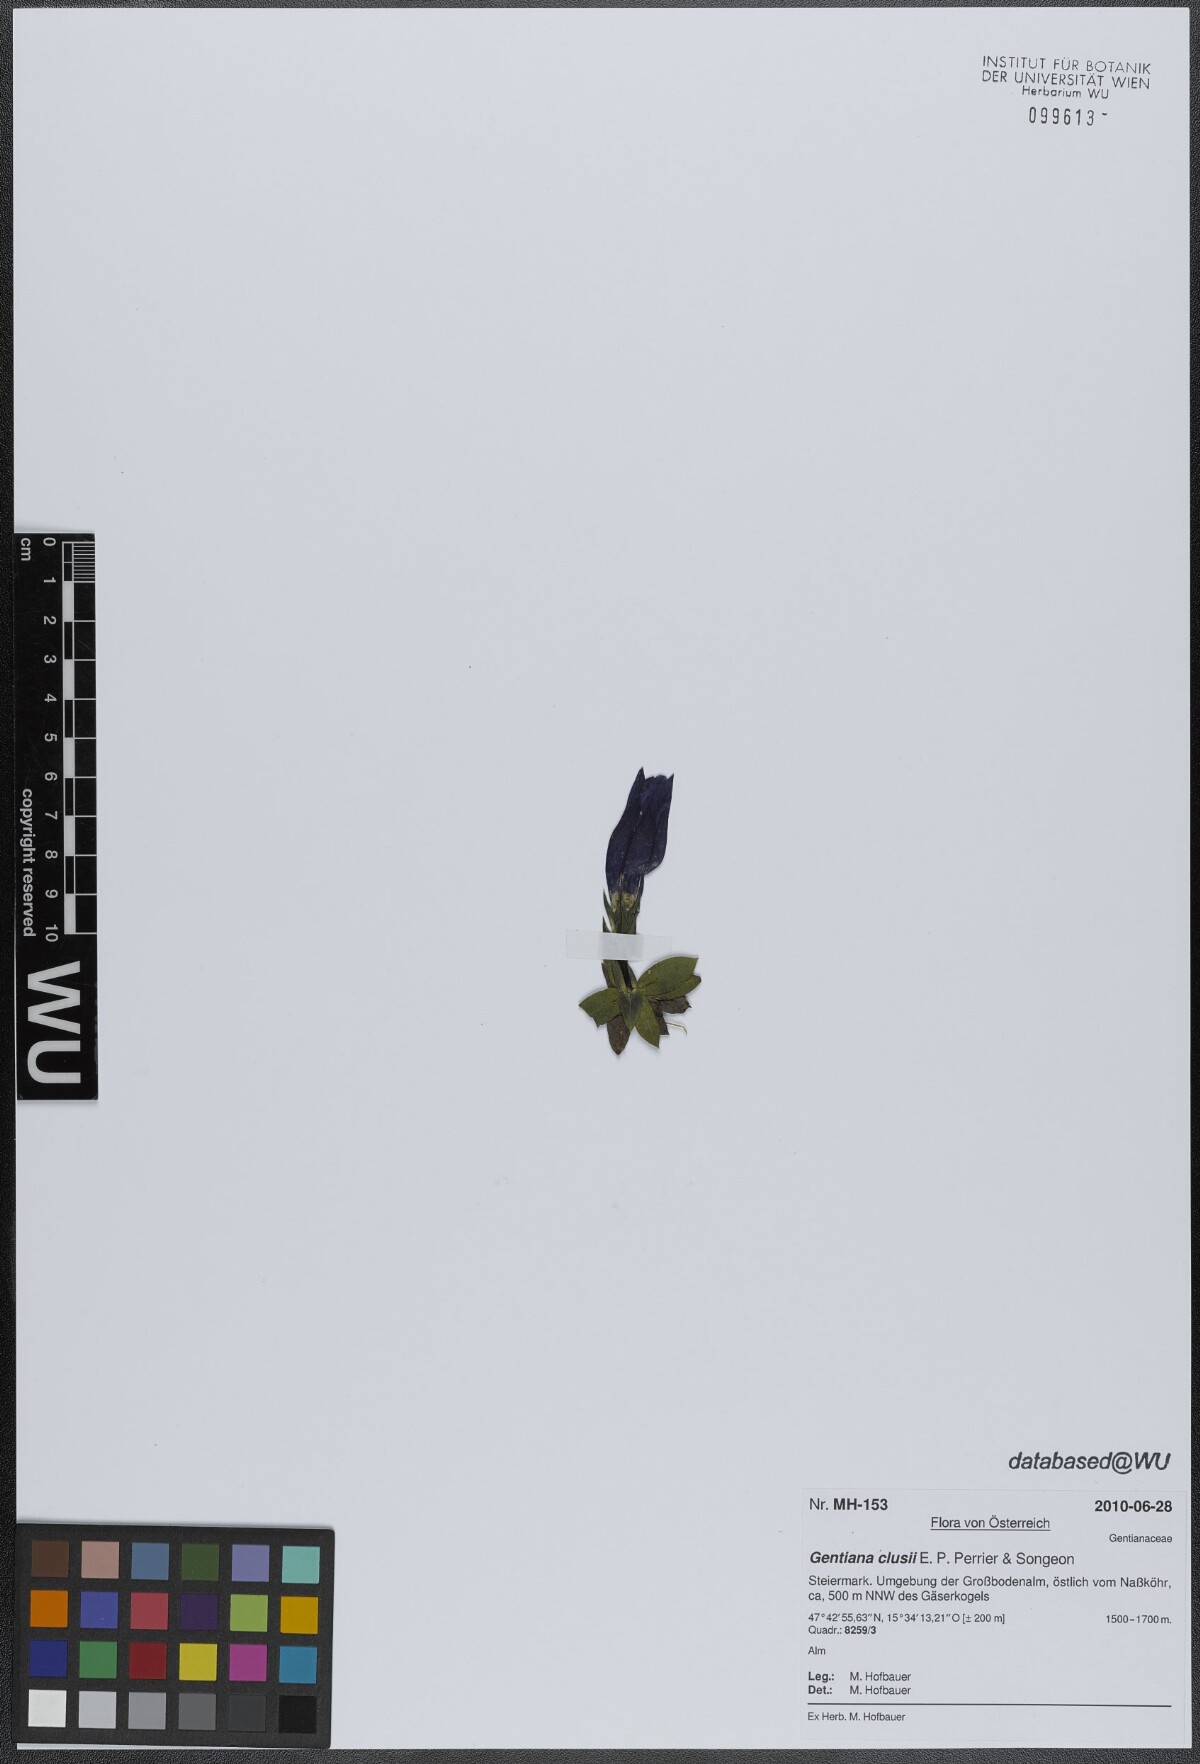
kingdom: Plantae
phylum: Tracheophyta
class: Magnoliopsida
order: Gentianales
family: Gentianaceae
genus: Gentiana
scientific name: Gentiana clusii
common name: Trumpet gentian
